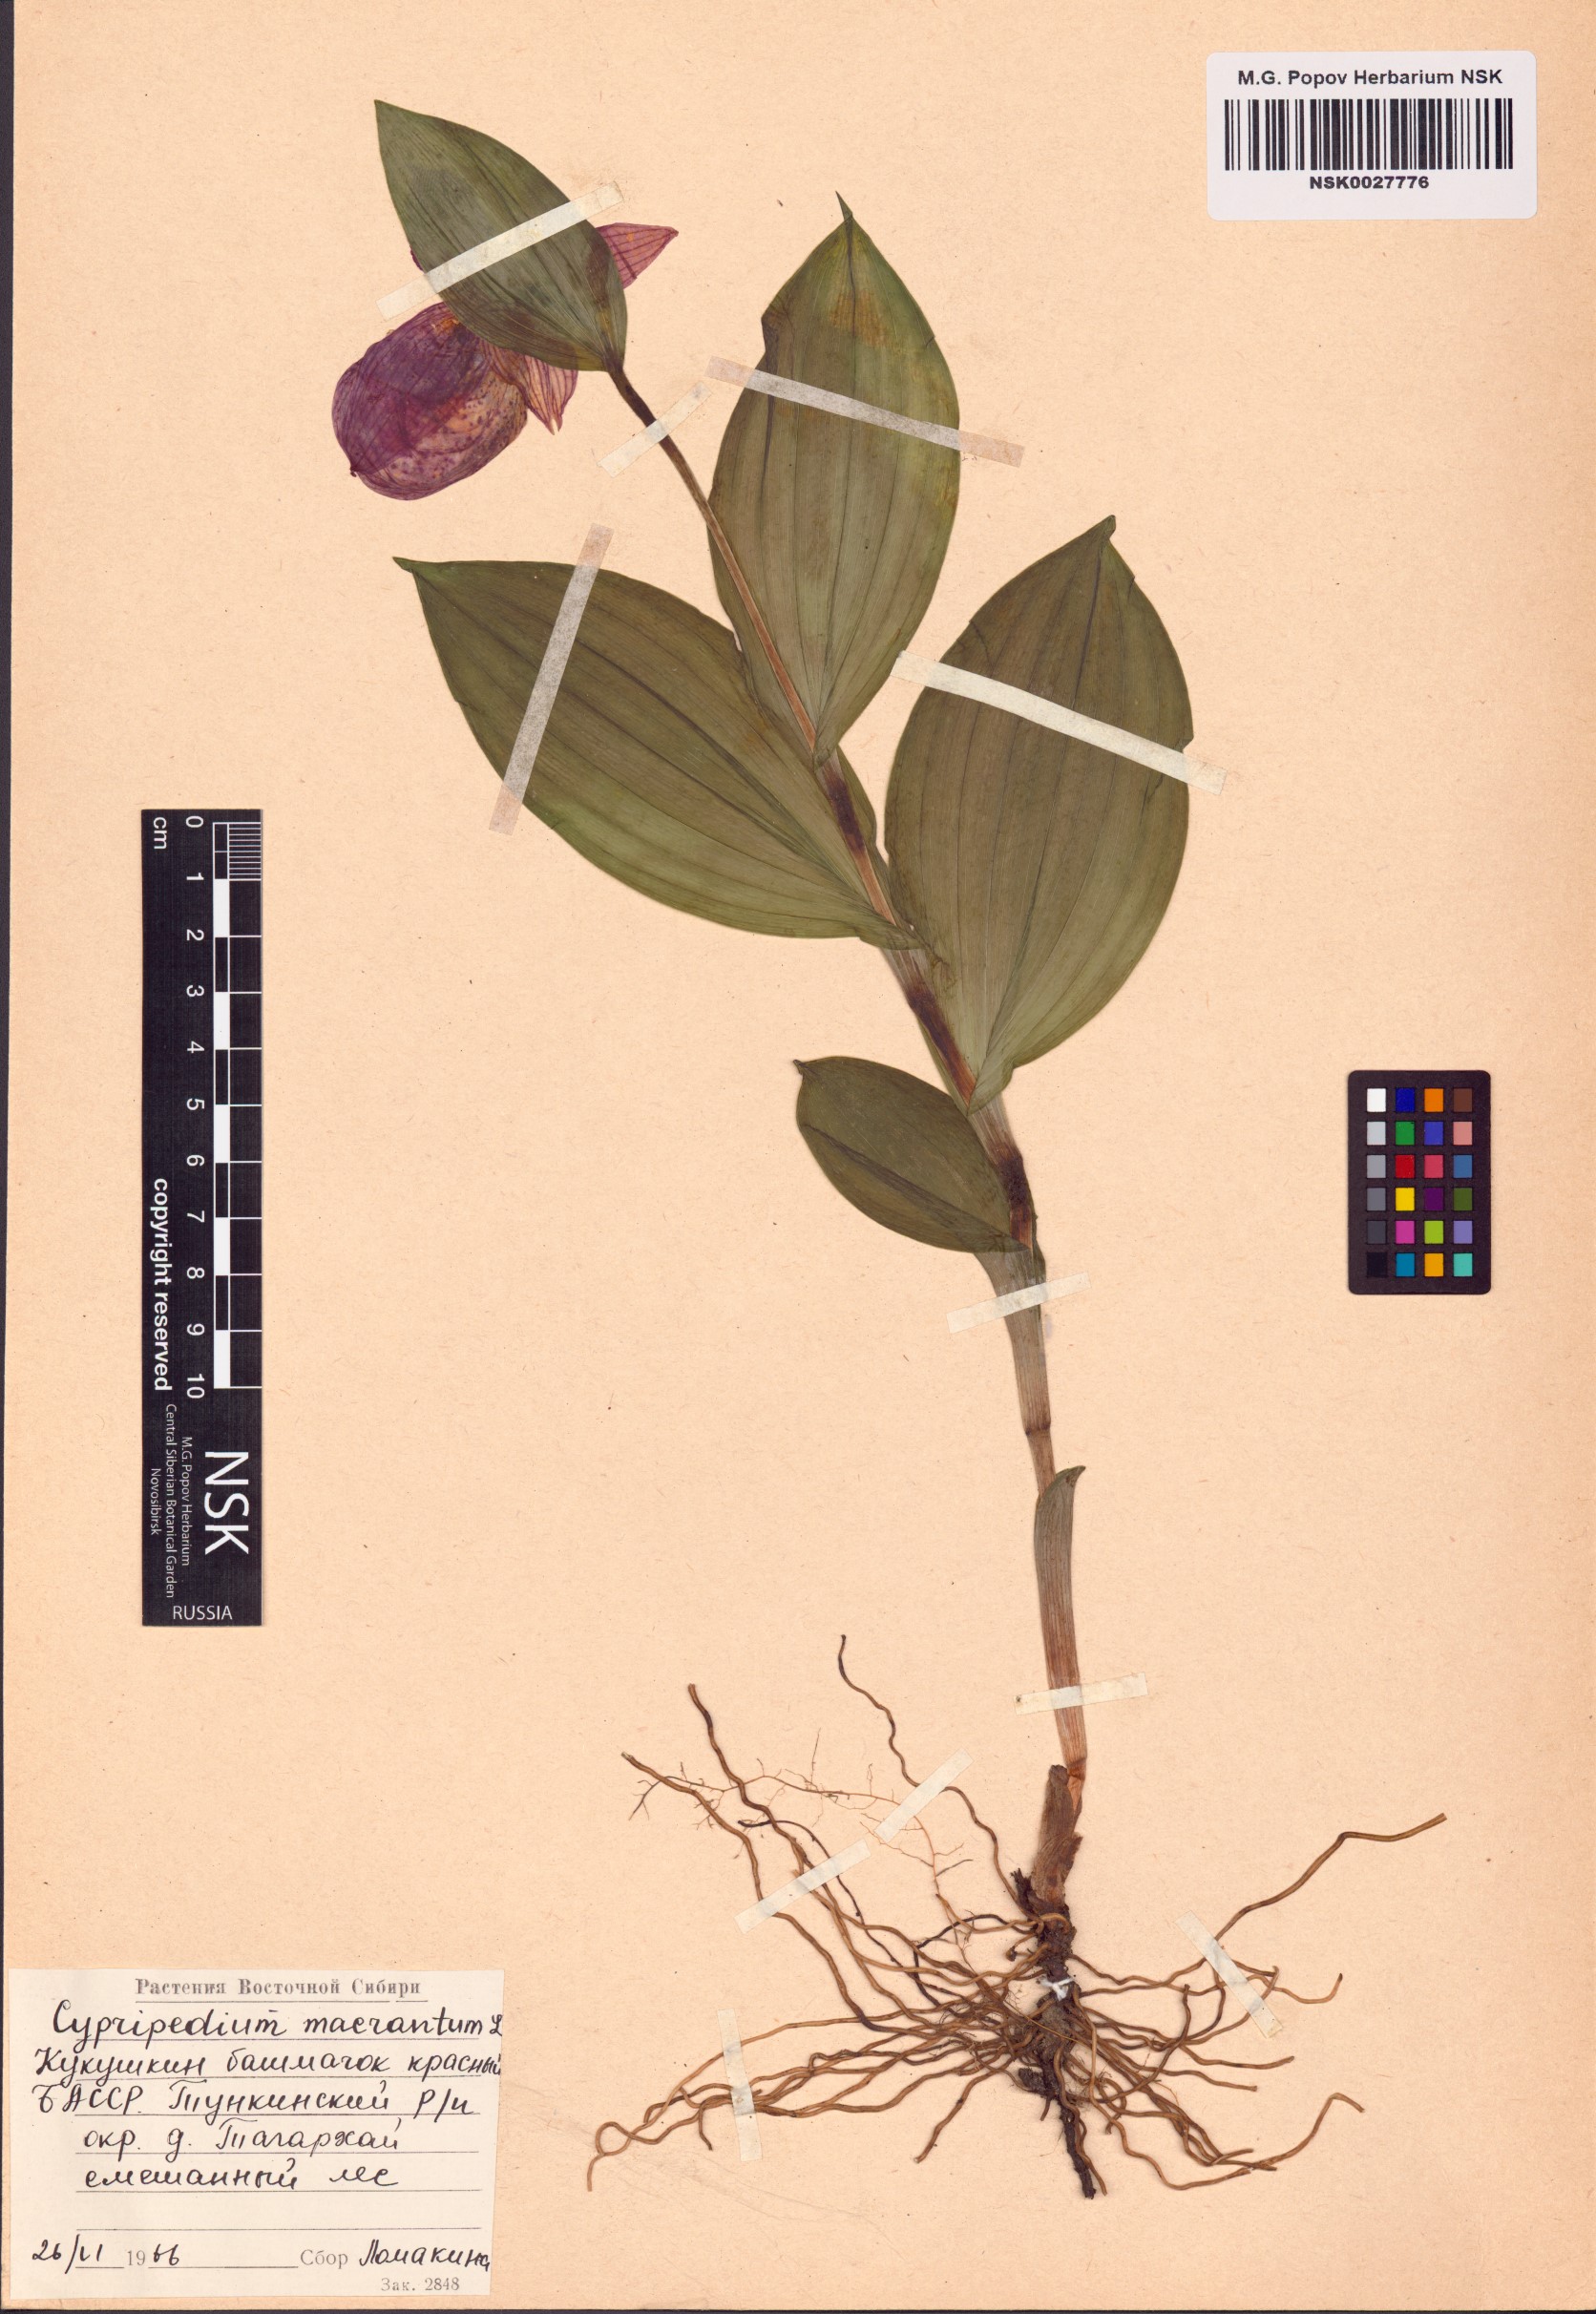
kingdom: Plantae
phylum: Tracheophyta
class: Liliopsida
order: Asparagales
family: Orchidaceae
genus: Cypripedium
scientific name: Cypripedium macranthos
